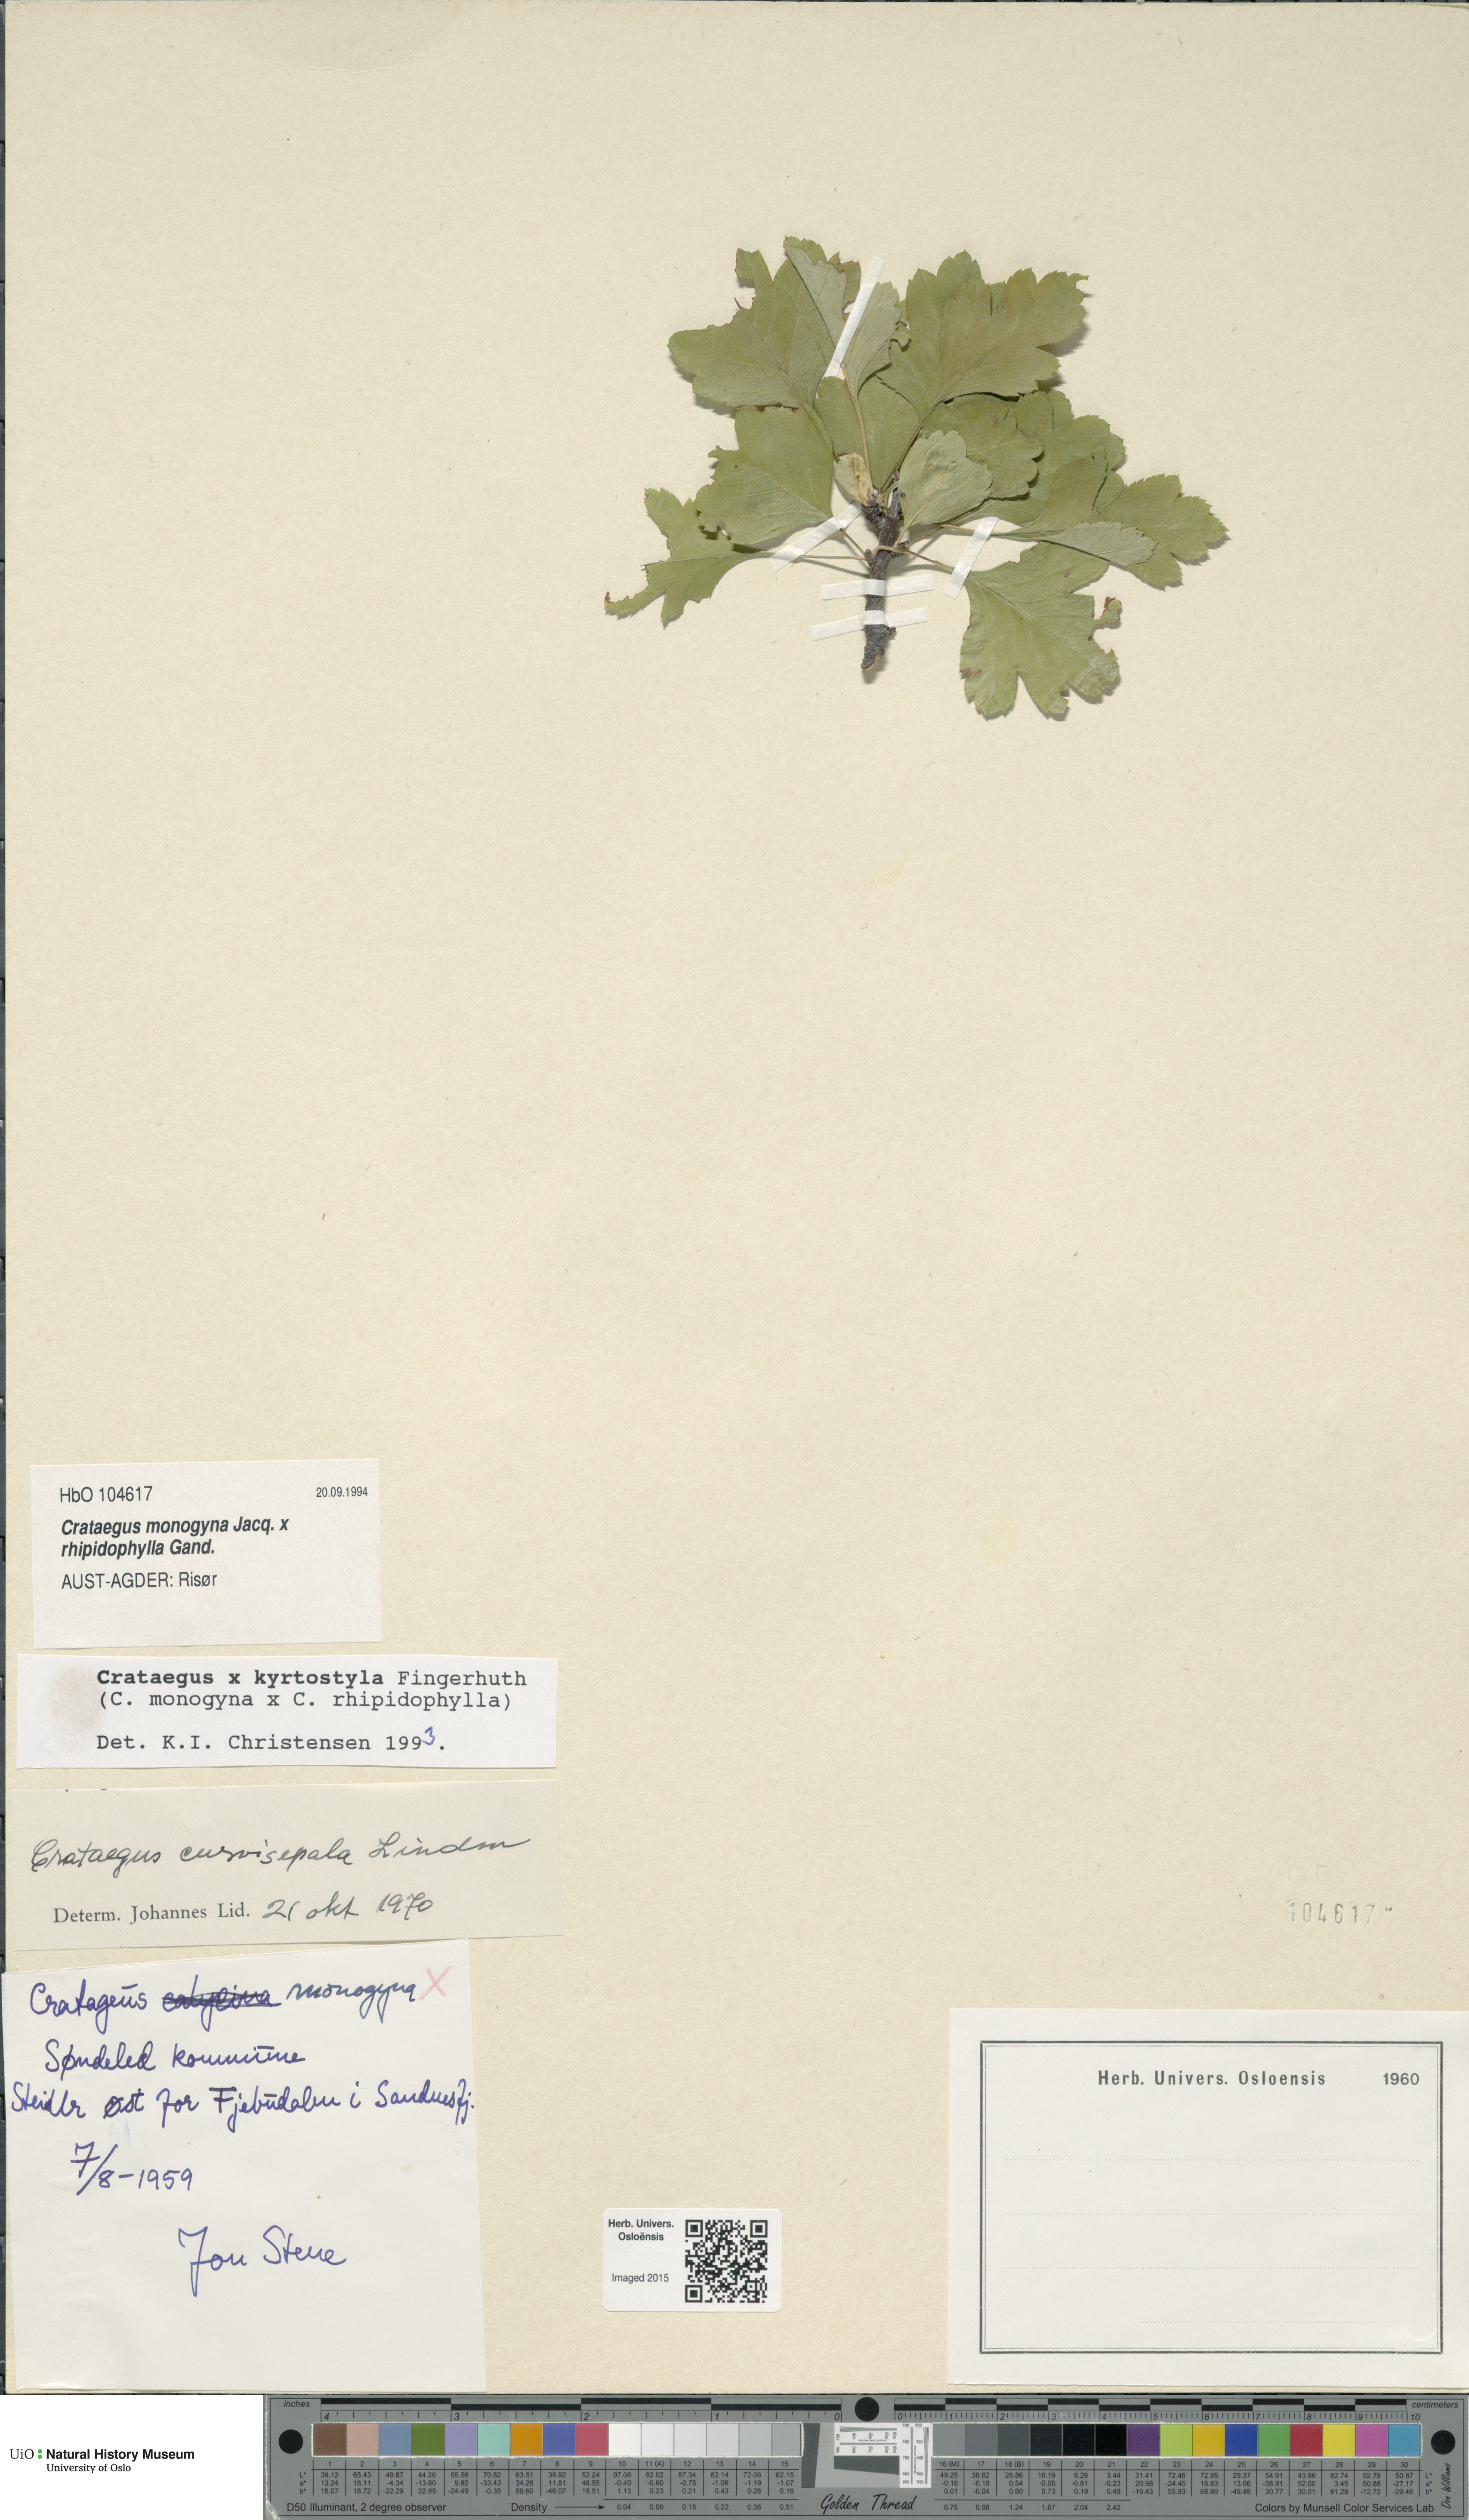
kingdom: Plantae
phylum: Tracheophyta
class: Magnoliopsida
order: Rosales
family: Rosaceae
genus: Crataegus
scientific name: Crataegus
